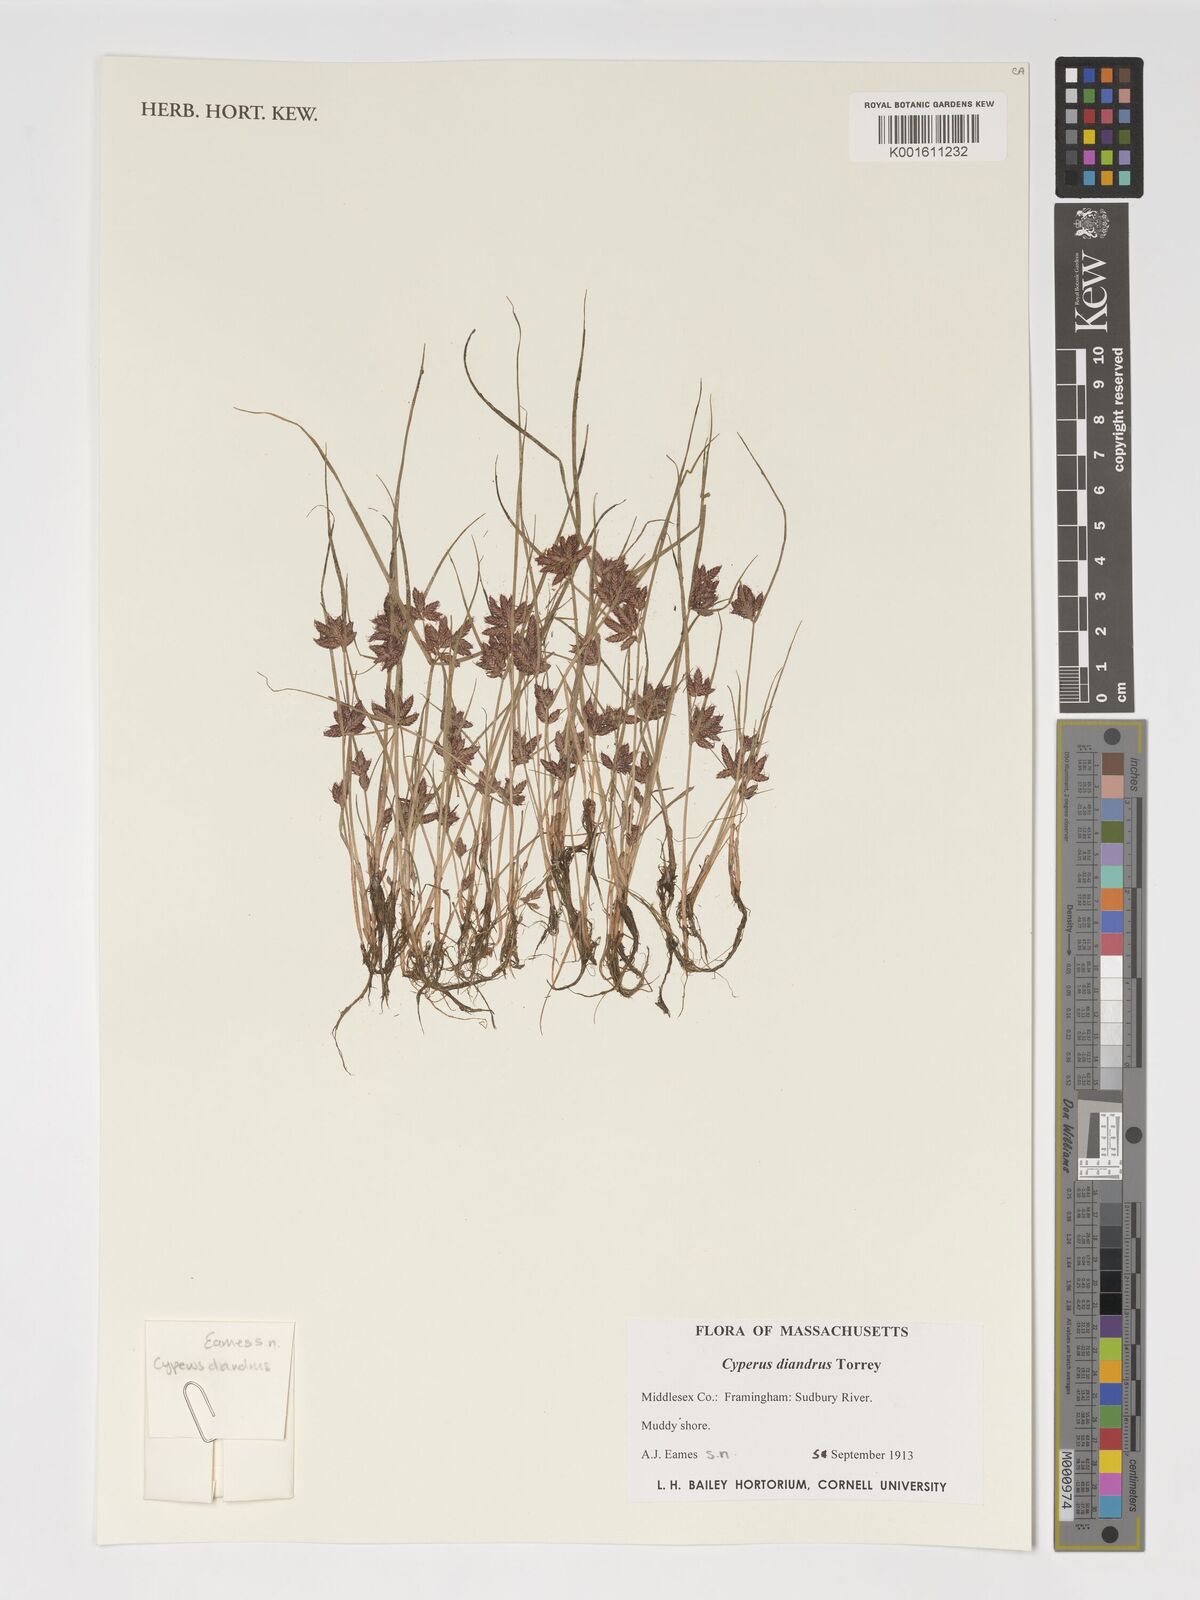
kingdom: Plantae
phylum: Tracheophyta
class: Liliopsida
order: Poales
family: Cyperaceae
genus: Cyperus
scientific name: Cyperus diandrus
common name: Low cyperus
